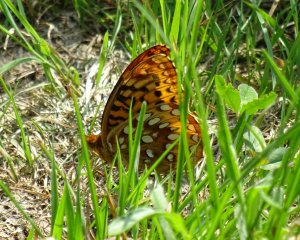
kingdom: Animalia
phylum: Arthropoda
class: Insecta
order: Lepidoptera
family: Nymphalidae
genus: Speyeria
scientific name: Speyeria cybele
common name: Great Spangled Fritillary
